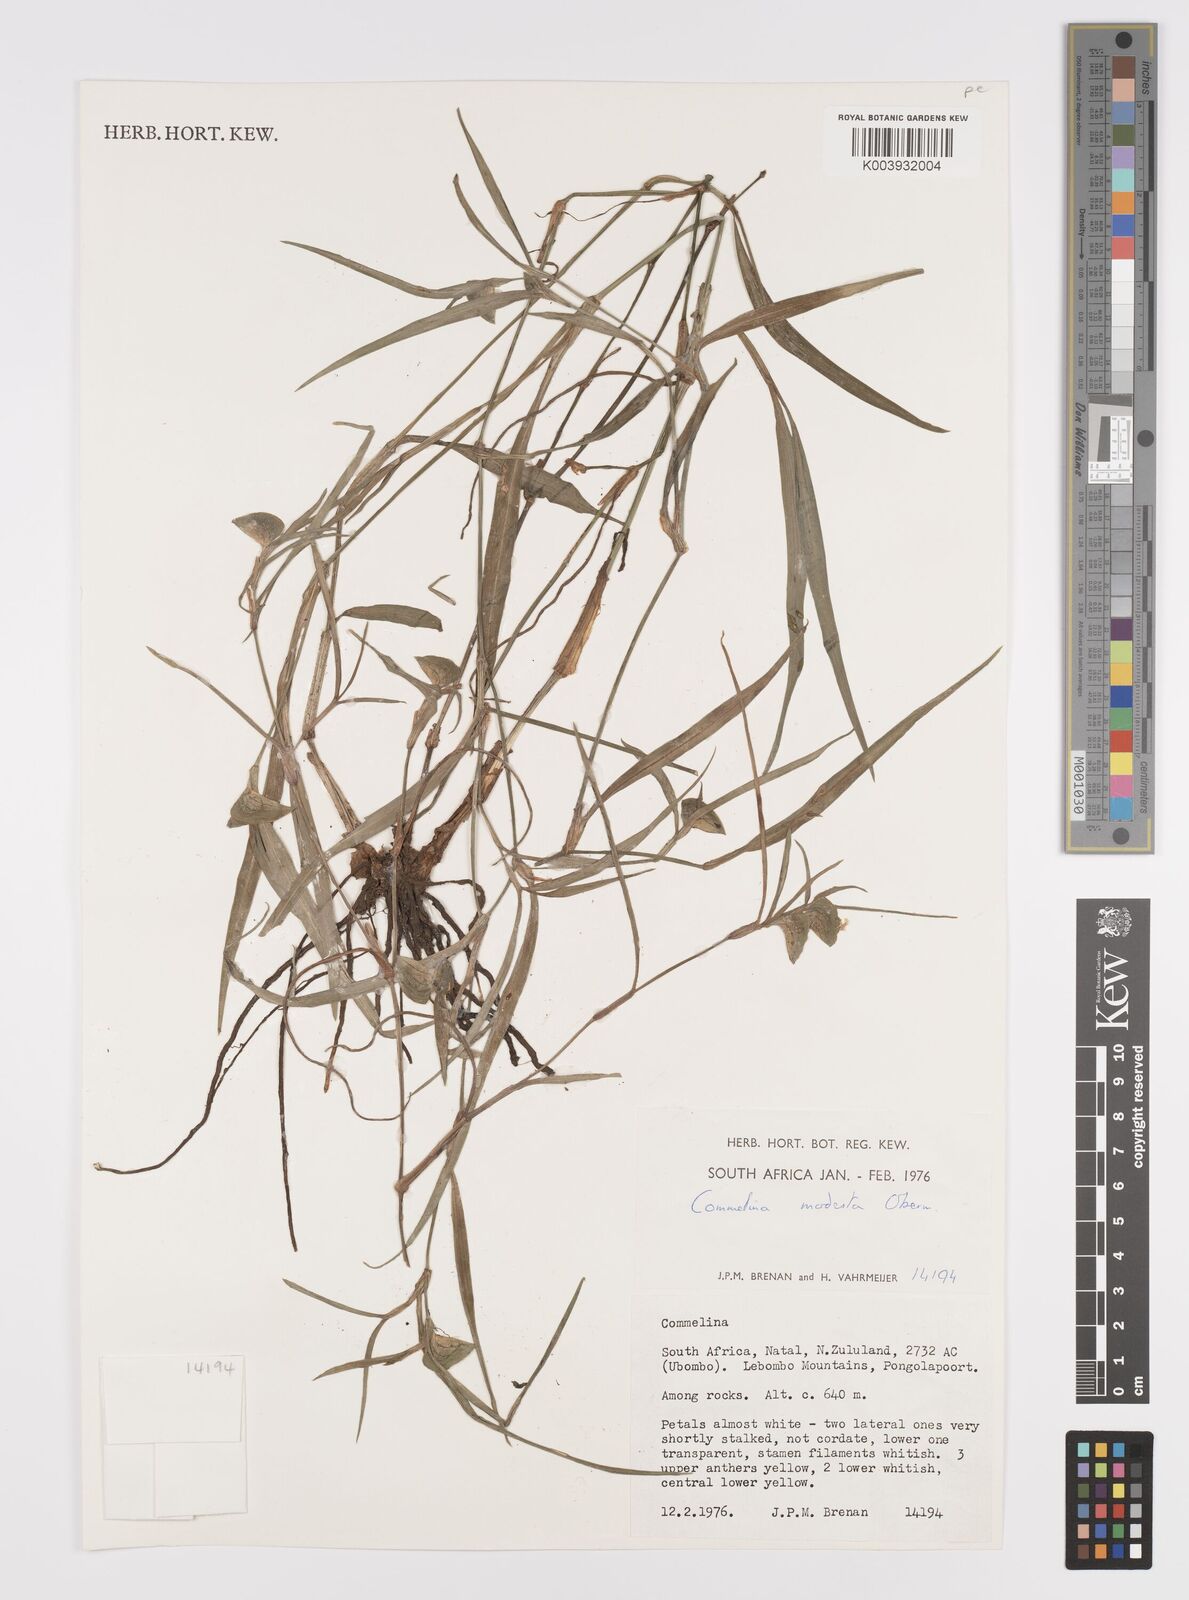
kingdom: Plantae
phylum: Tracheophyta
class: Liliopsida
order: Commelinales
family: Commelinaceae
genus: Commelina
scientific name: Commelina modesta
